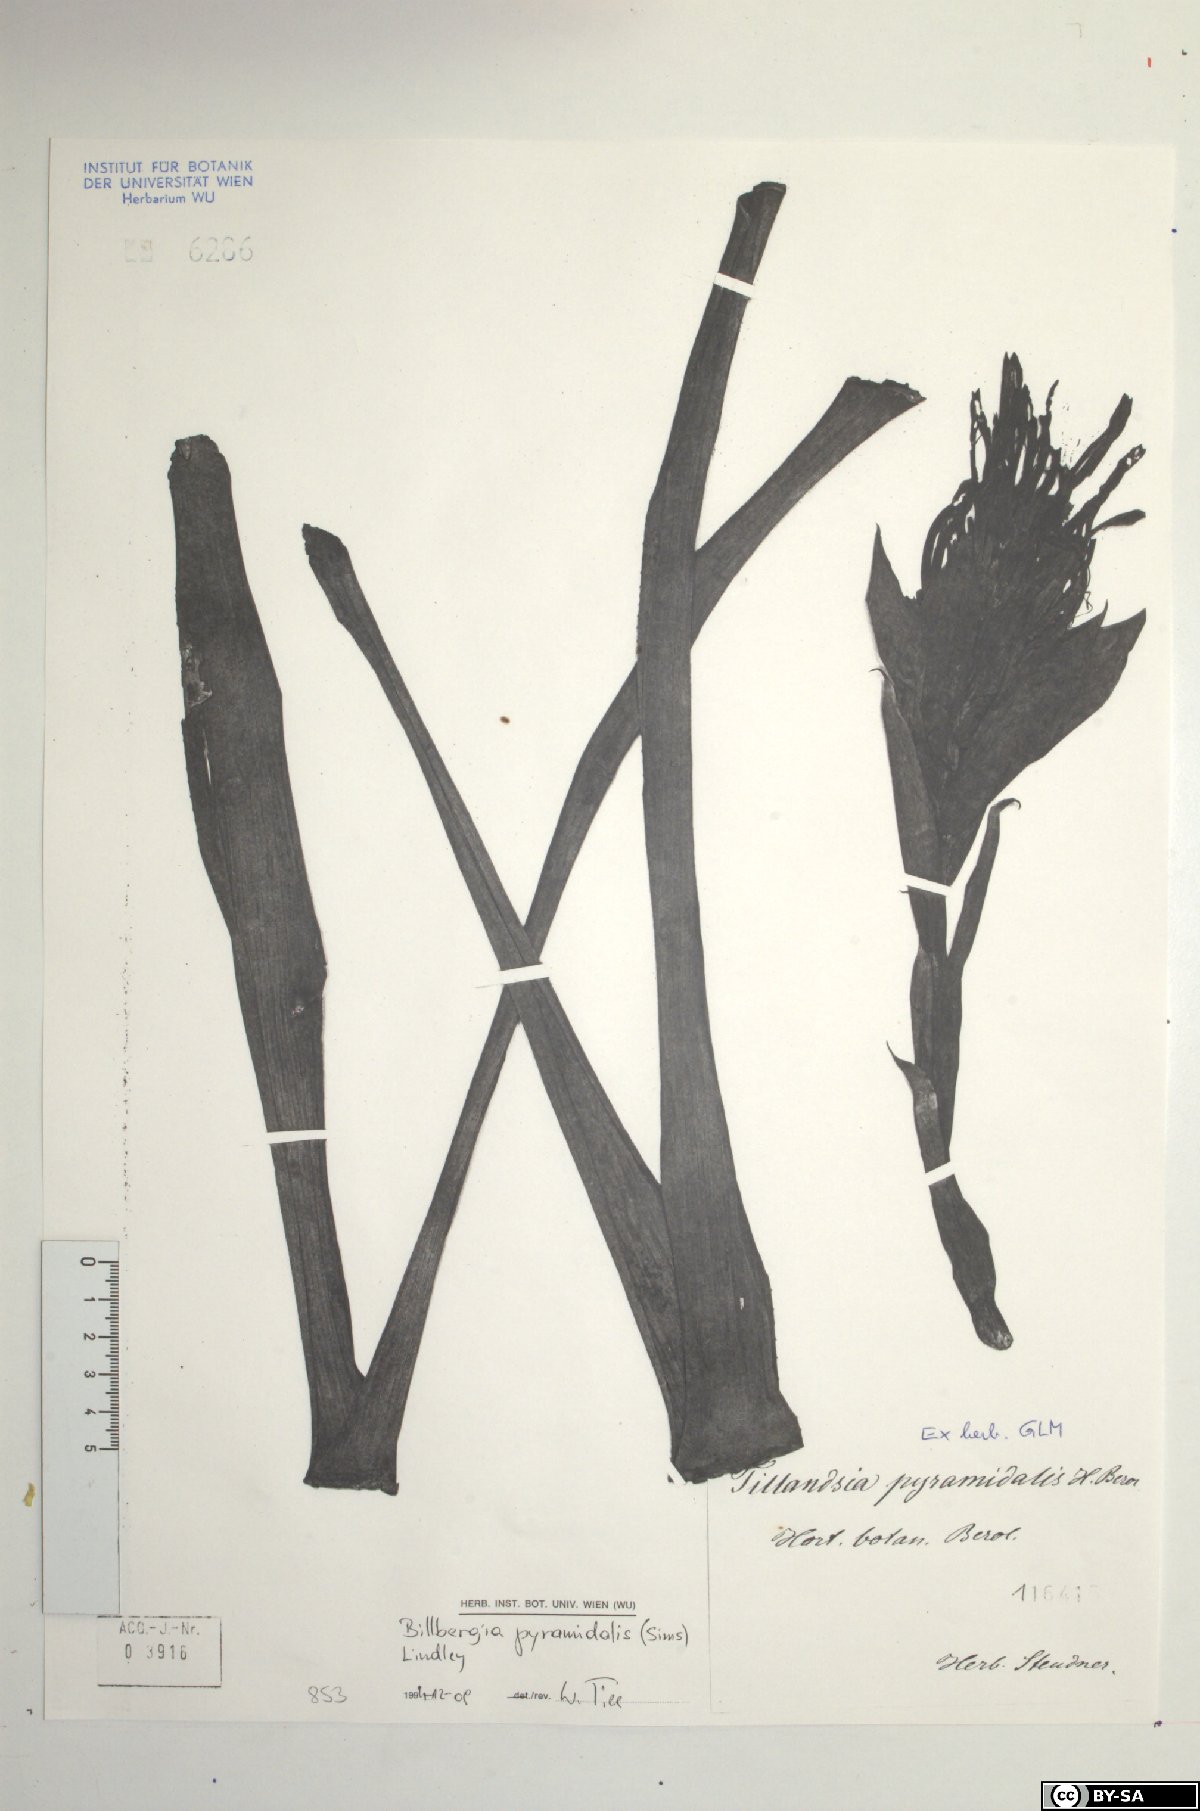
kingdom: Plantae
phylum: Tracheophyta
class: Liliopsida
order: Poales
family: Bromeliaceae
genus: Billbergia
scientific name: Billbergia pyramidalis
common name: Foolproofplant
